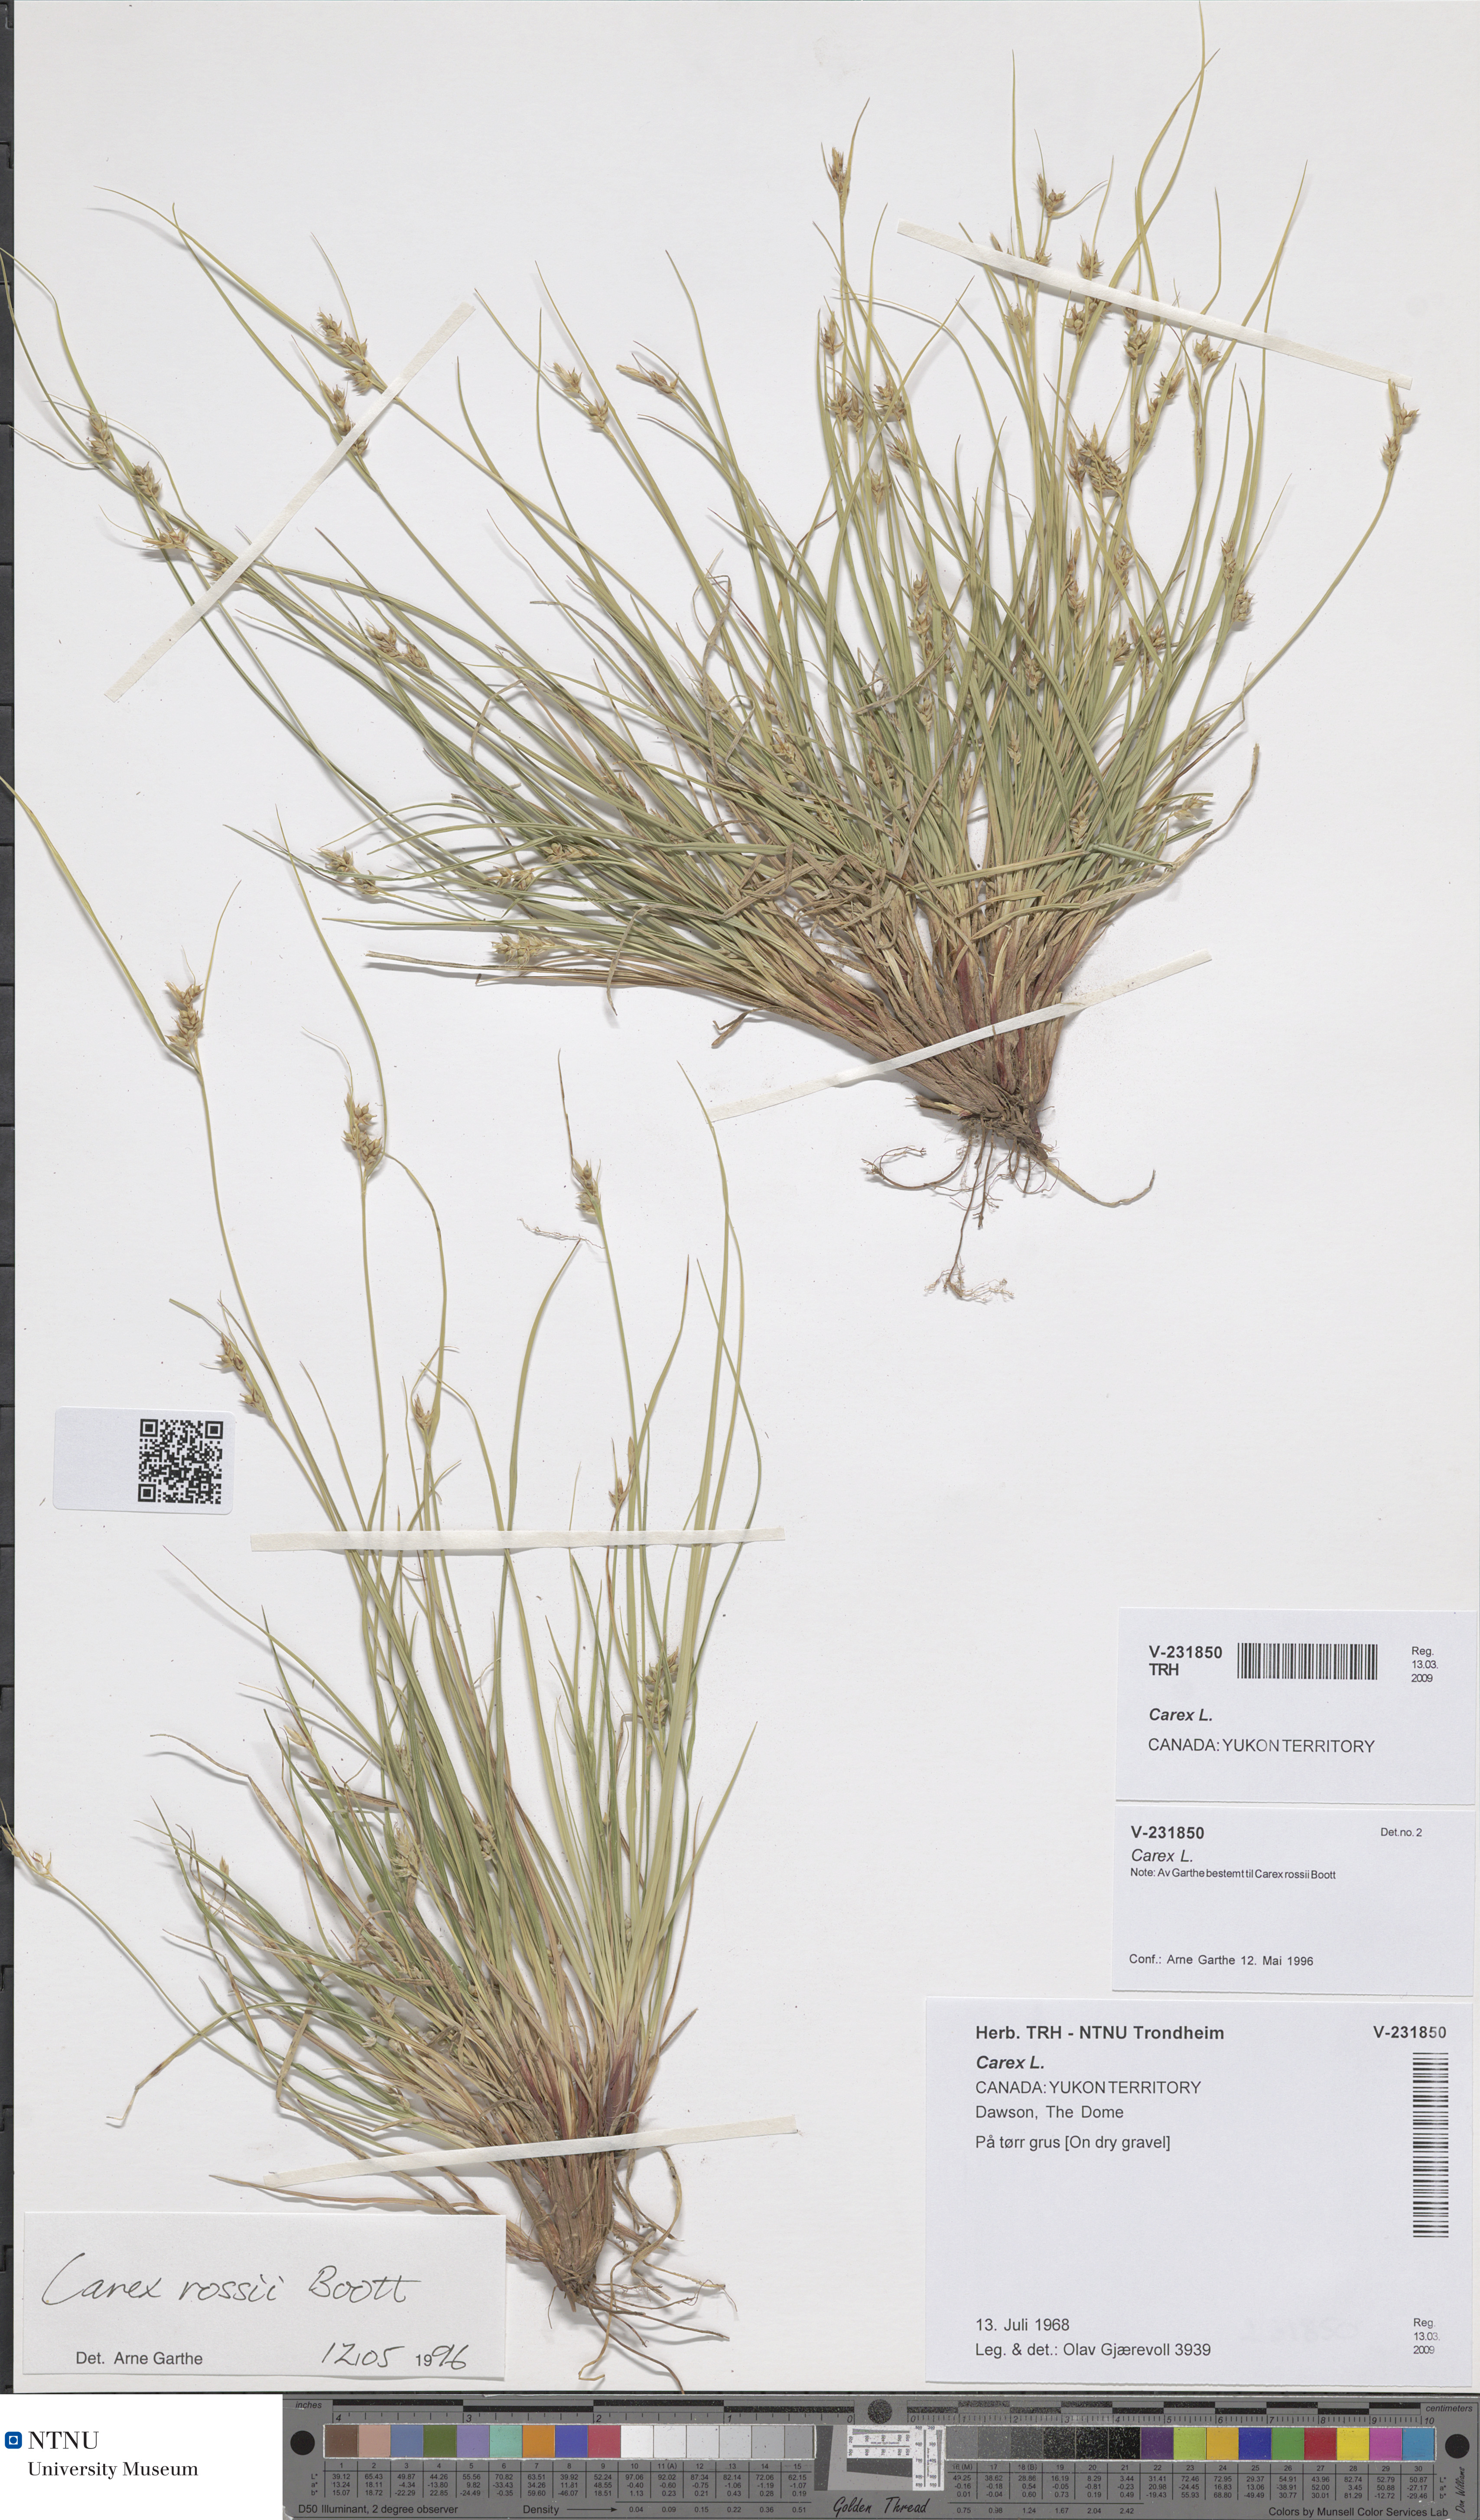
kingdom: Plantae
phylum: Tracheophyta
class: Liliopsida
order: Poales
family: Cyperaceae
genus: Carex
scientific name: Carex
